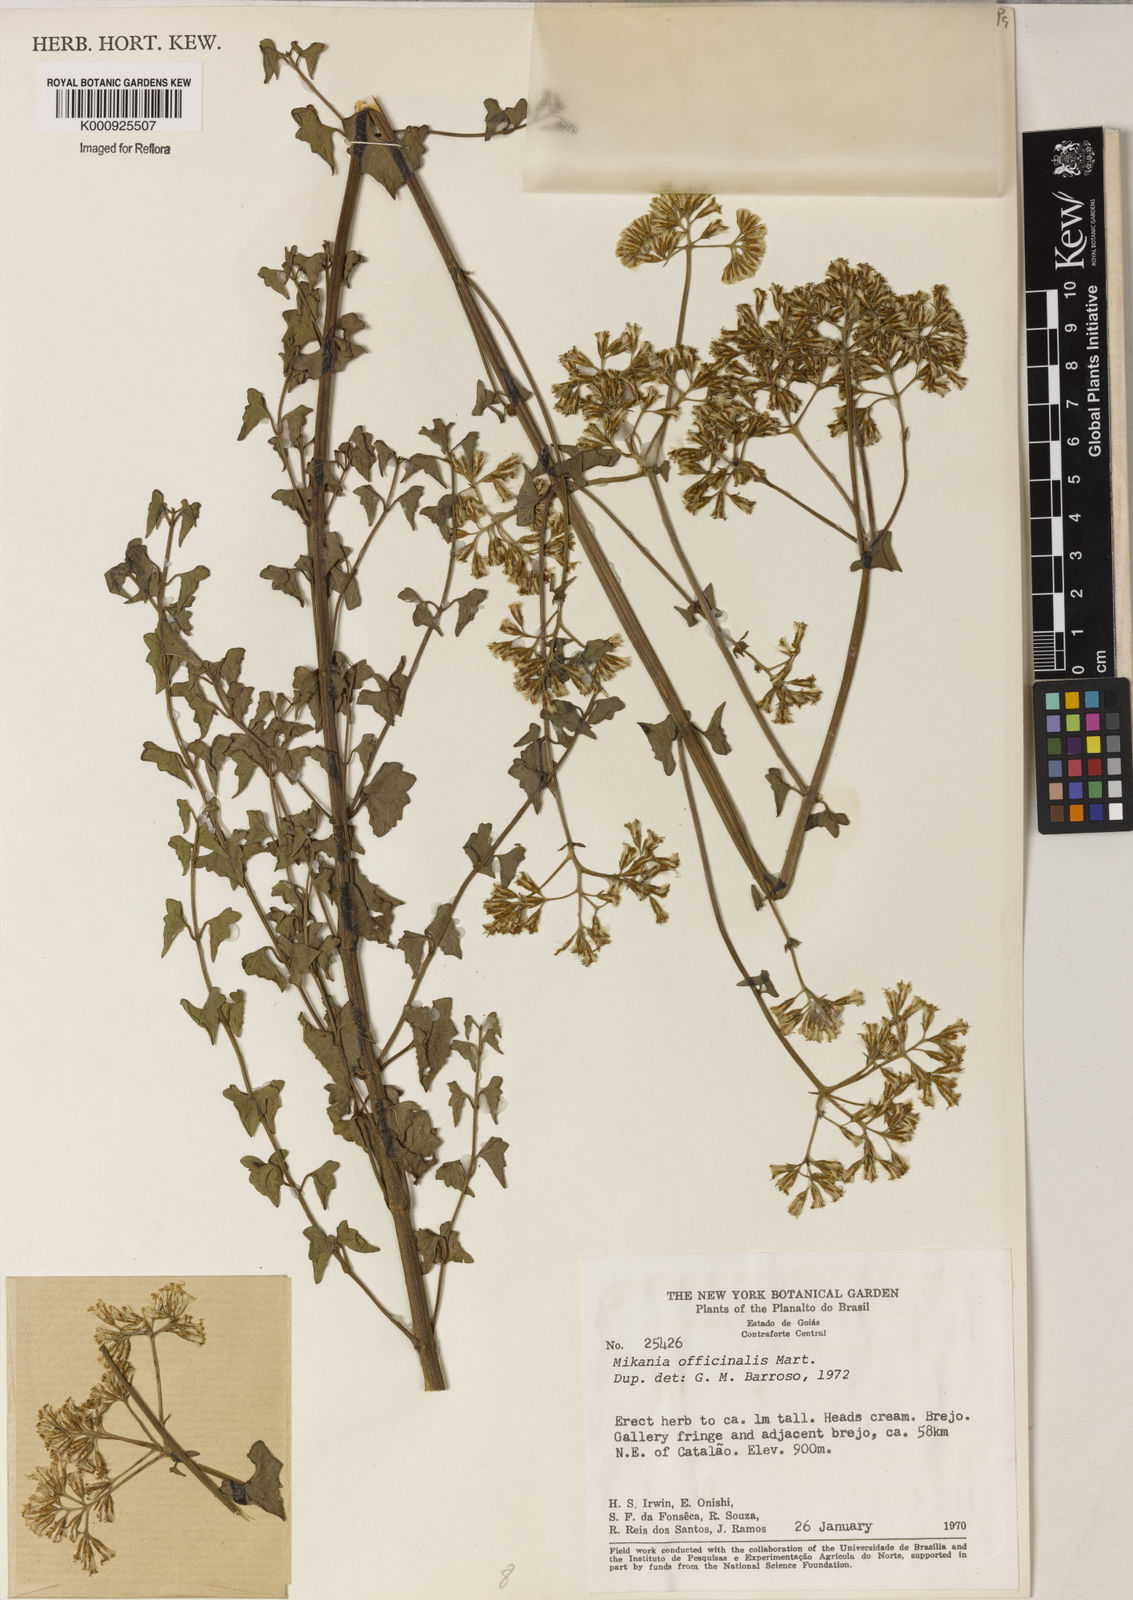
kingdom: Plantae
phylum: Tracheophyta
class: Magnoliopsida
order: Asterales
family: Asteraceae
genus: Mikania
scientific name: Mikania officinalis
